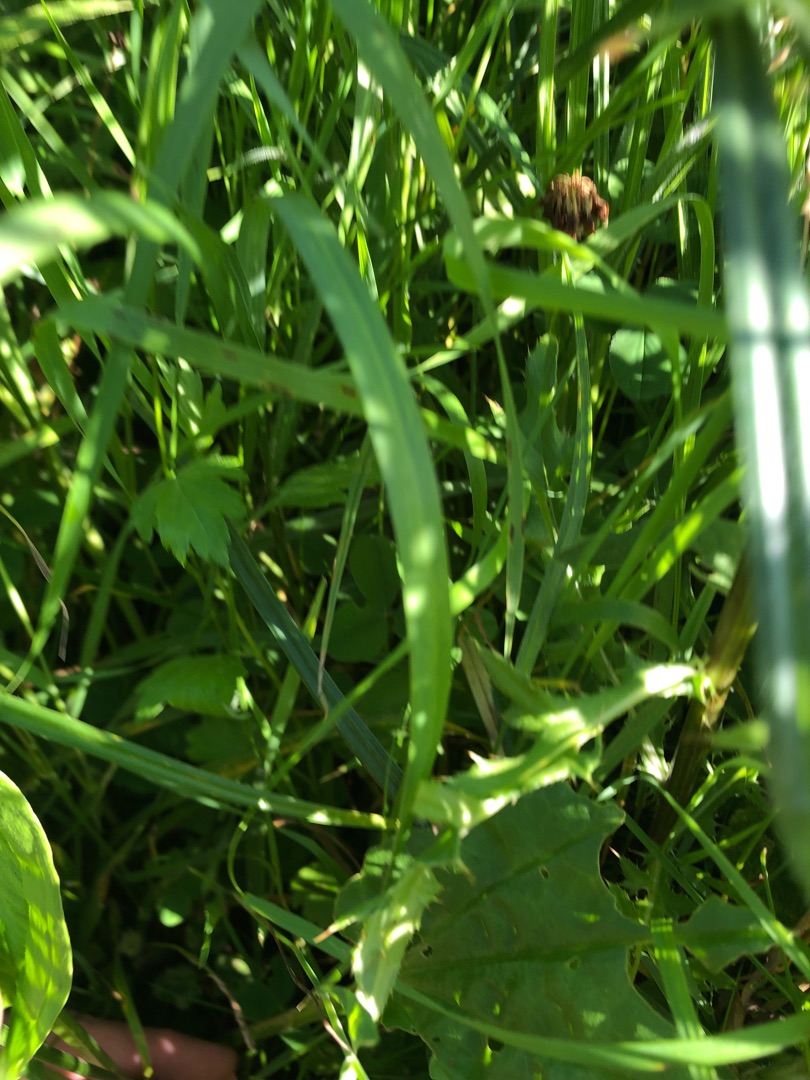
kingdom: Plantae
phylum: Tracheophyta
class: Magnoliopsida
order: Lamiales
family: Plantaginaceae
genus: Plantago
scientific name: Plantago major
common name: Glat vejbred
